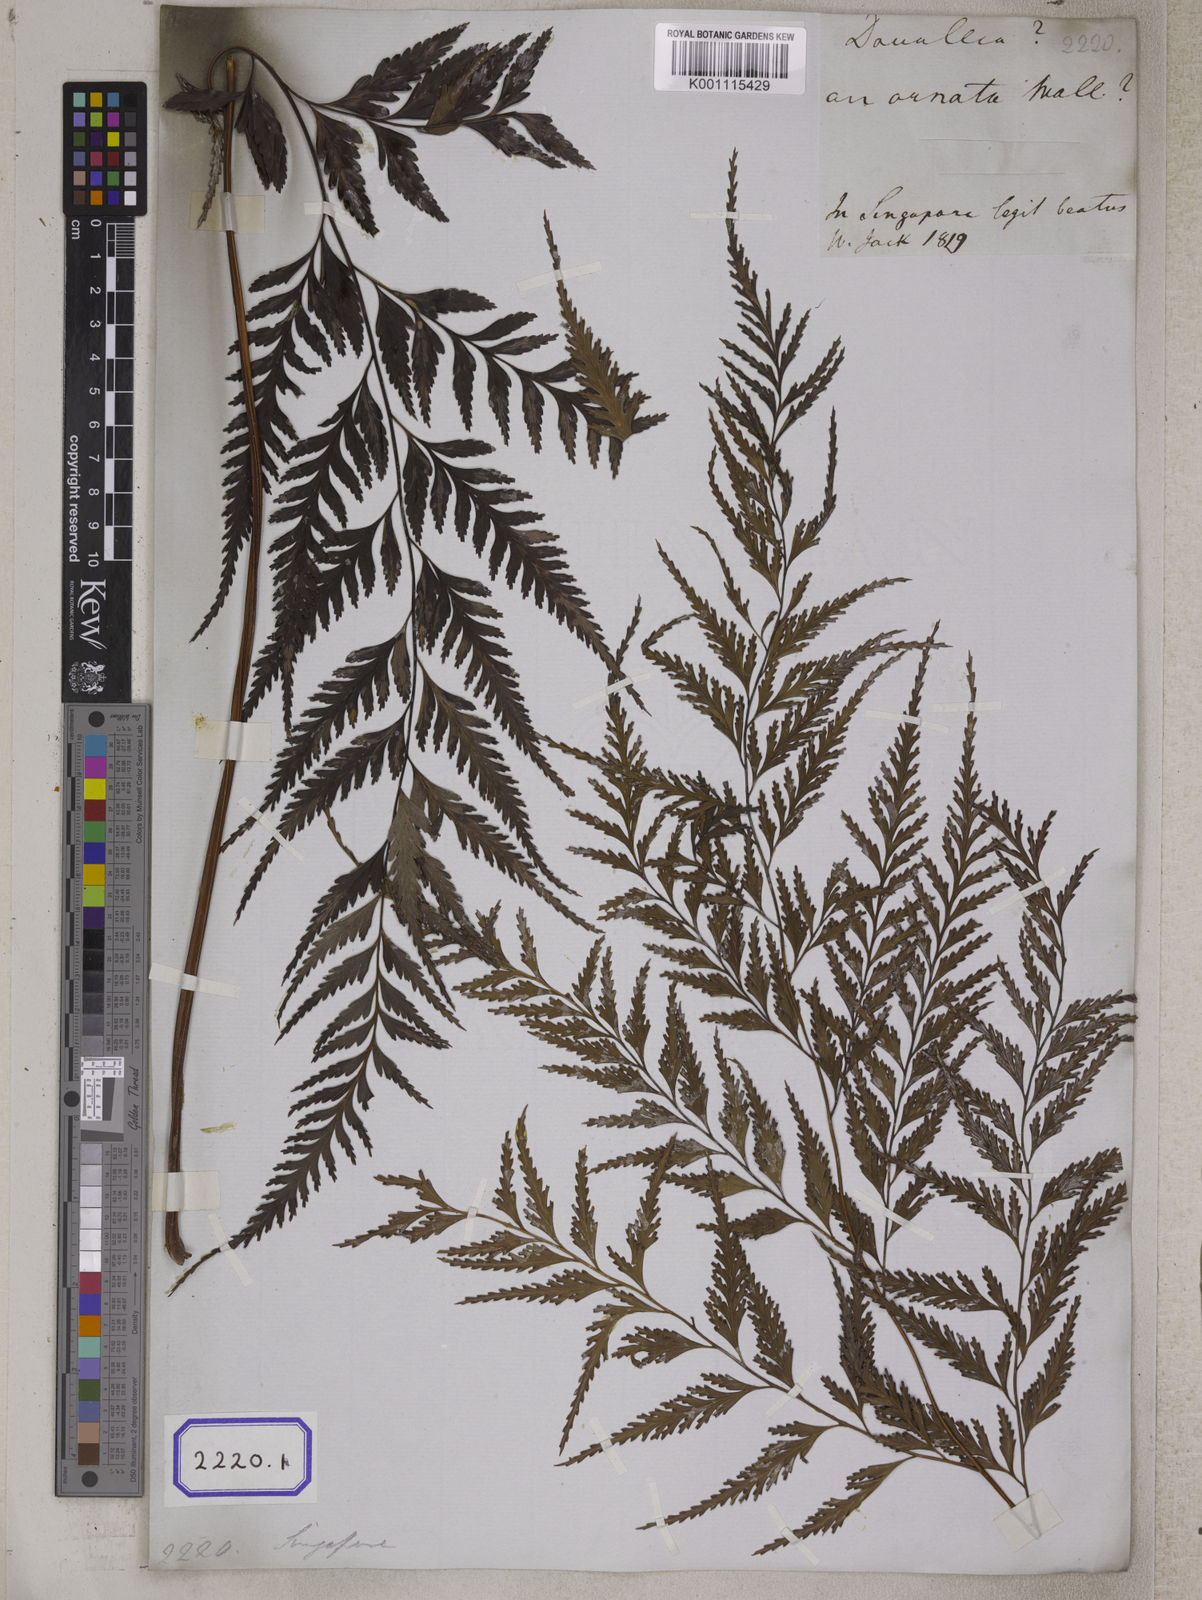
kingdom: Plantae
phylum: Tracheophyta
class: Polypodiopsida
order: Polypodiales
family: Davalliaceae
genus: Davallia
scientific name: Davallia denticulata
